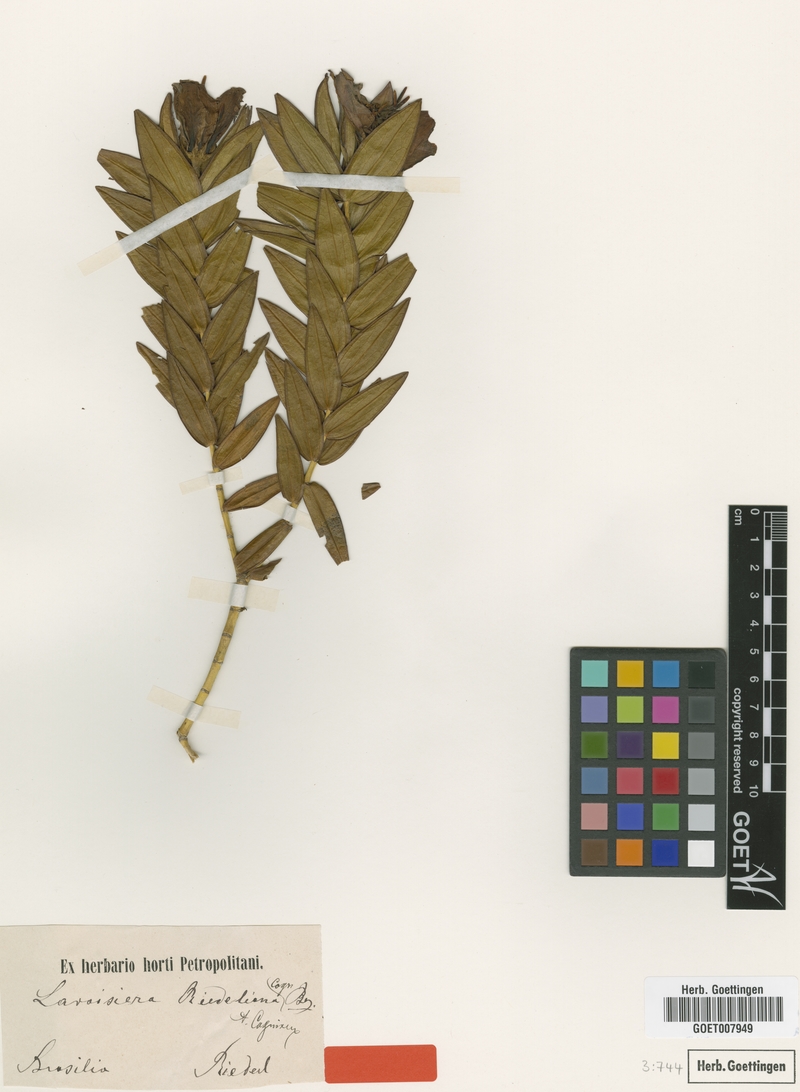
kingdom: Plantae
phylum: Tracheophyta
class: Magnoliopsida
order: Myrtales
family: Melastomataceae
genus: Microlicia
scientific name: Microlicia macrantha
